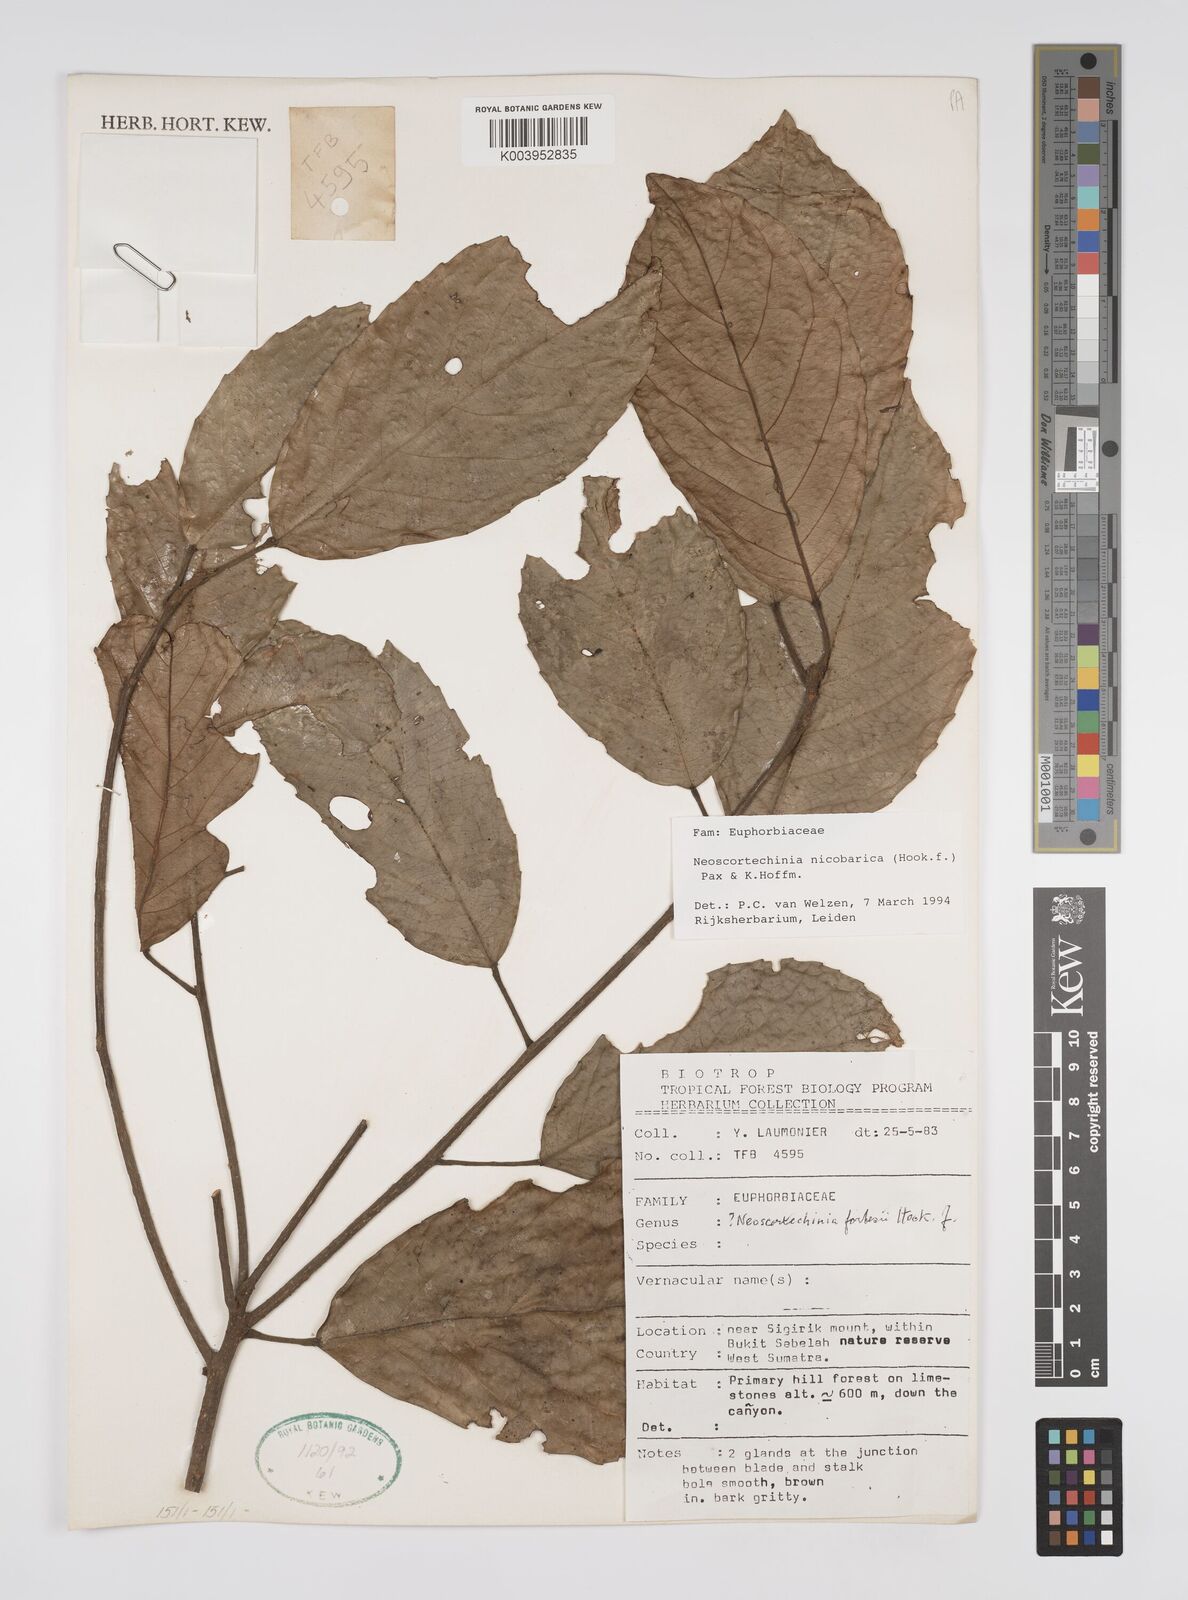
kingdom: Plantae
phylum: Tracheophyta
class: Magnoliopsida
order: Malpighiales
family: Euphorbiaceae
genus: Neoscortechinia
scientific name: Neoscortechinia nicobarica
